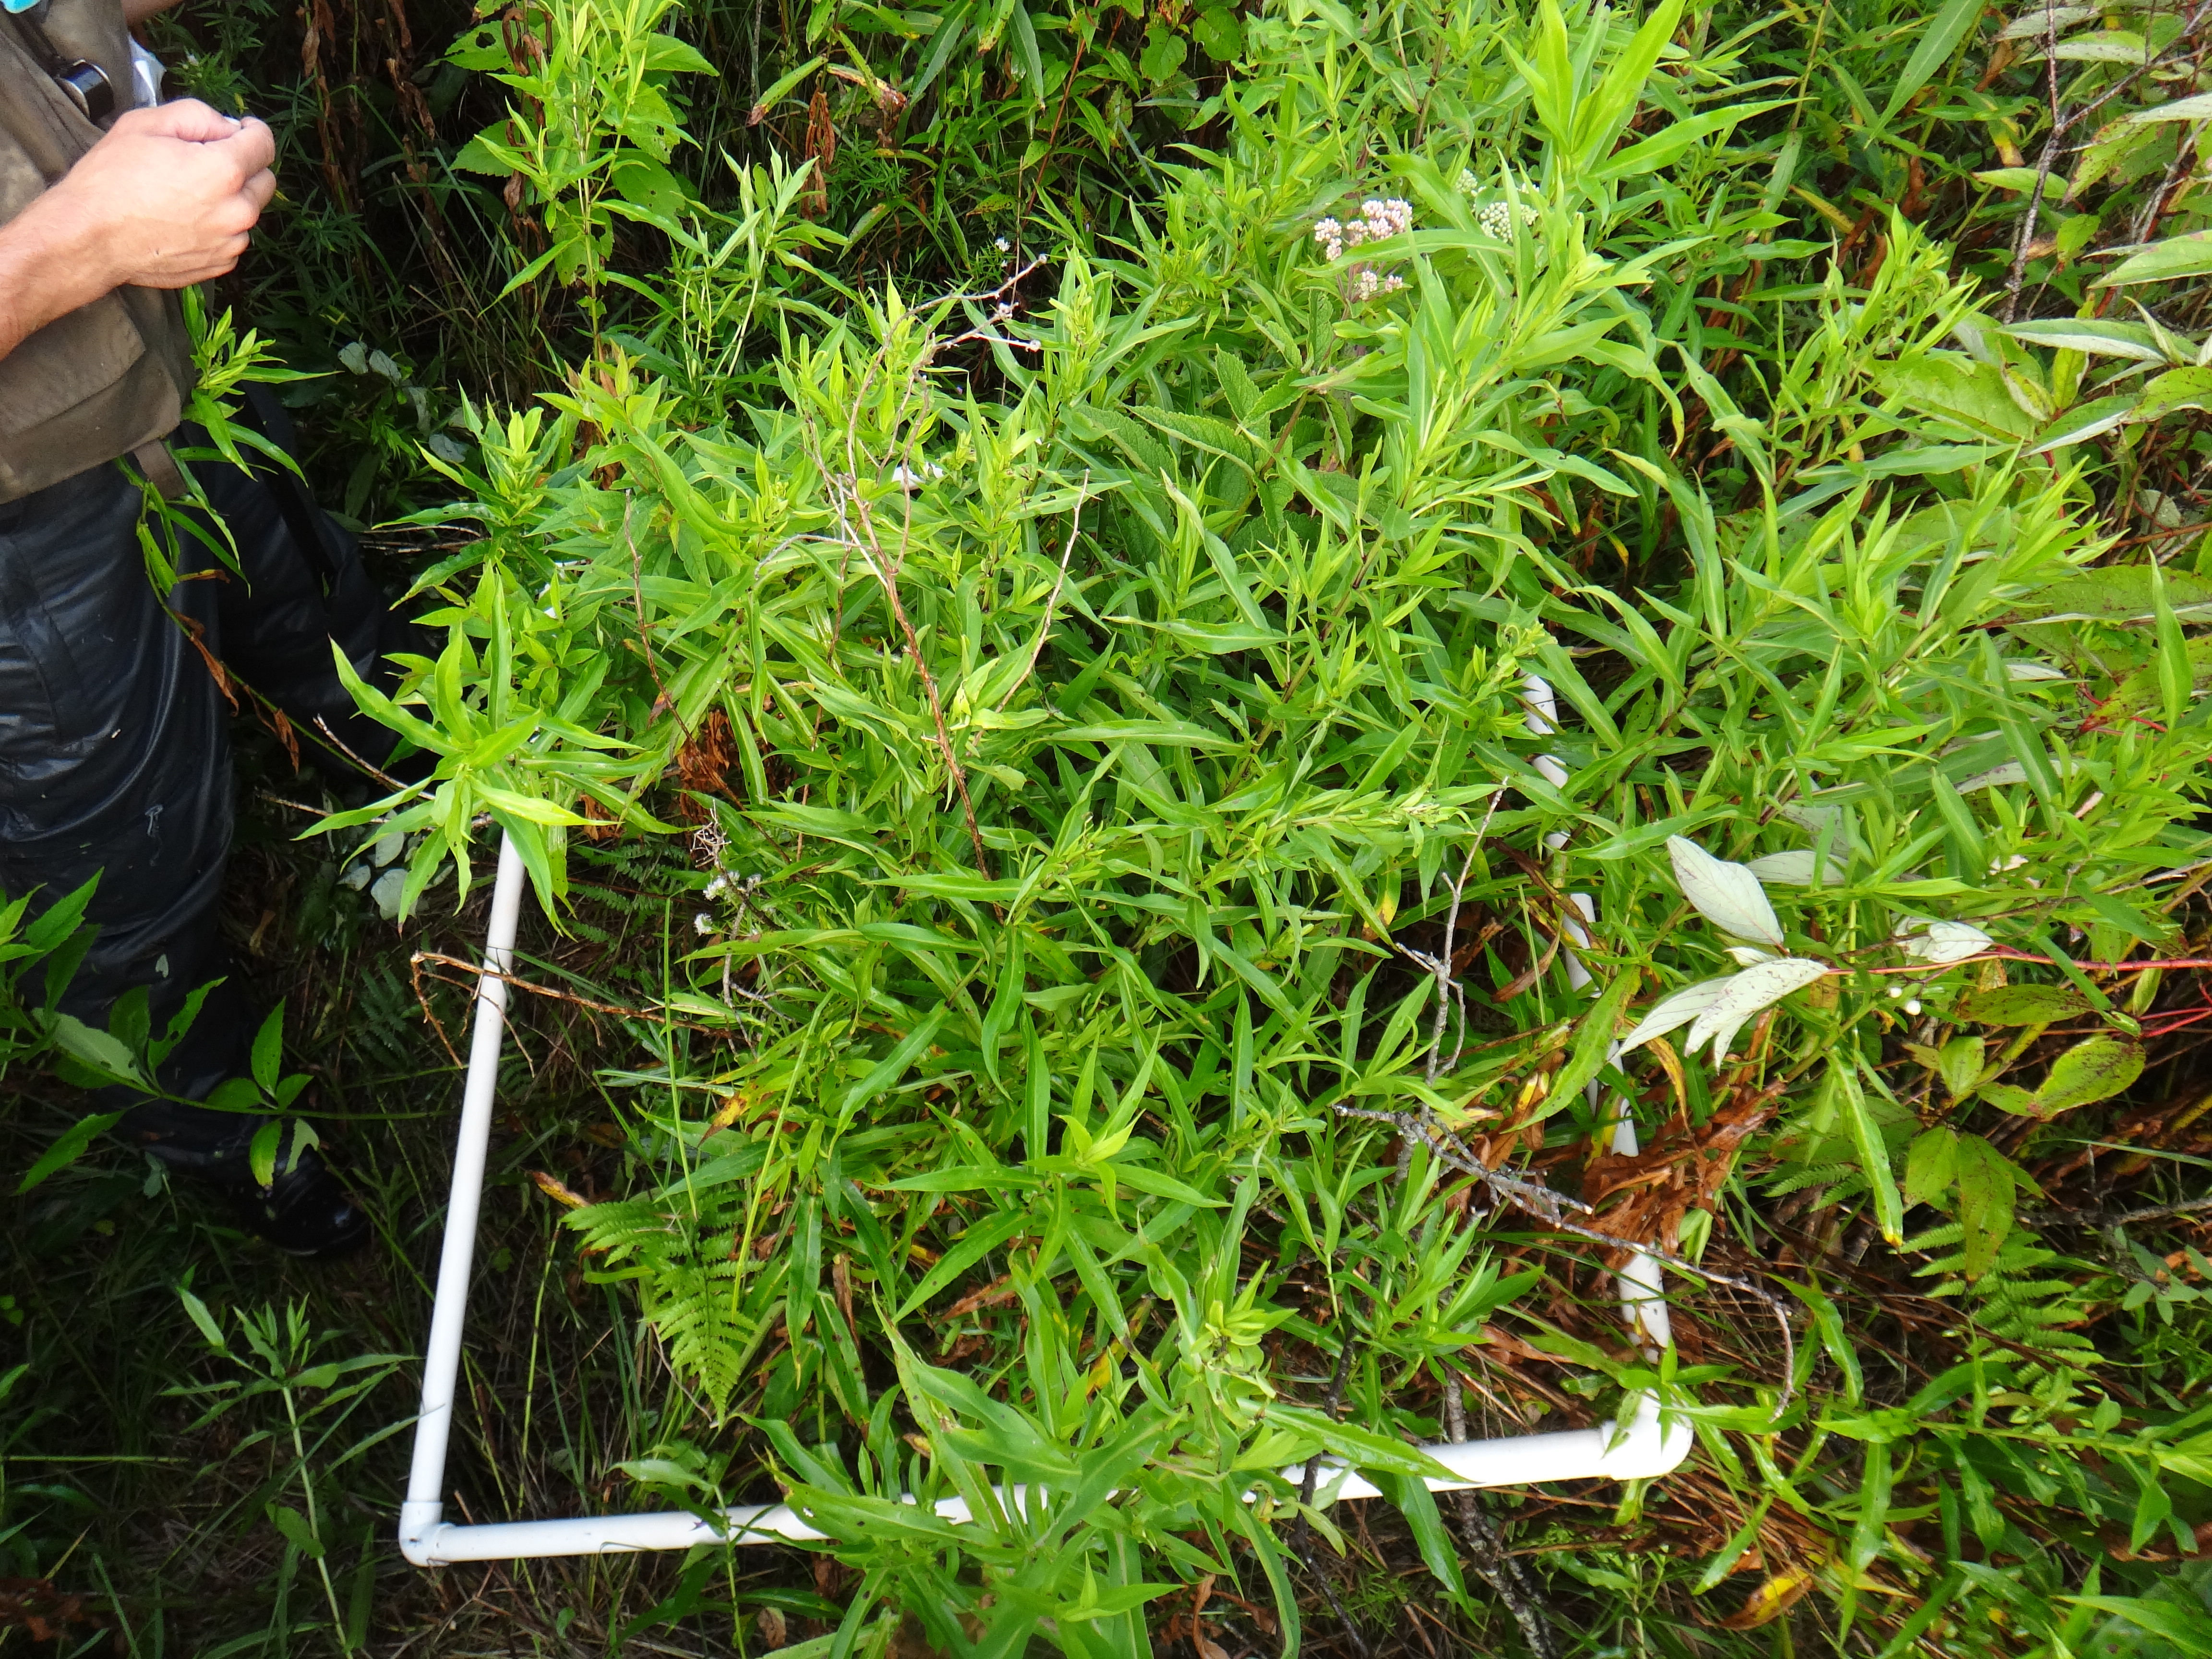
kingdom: Plantae
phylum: Tracheophyta
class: Magnoliopsida
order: Fabales
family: Fabaceae
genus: Lathyrus
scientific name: Lathyrus palustris
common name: Marsh pea
